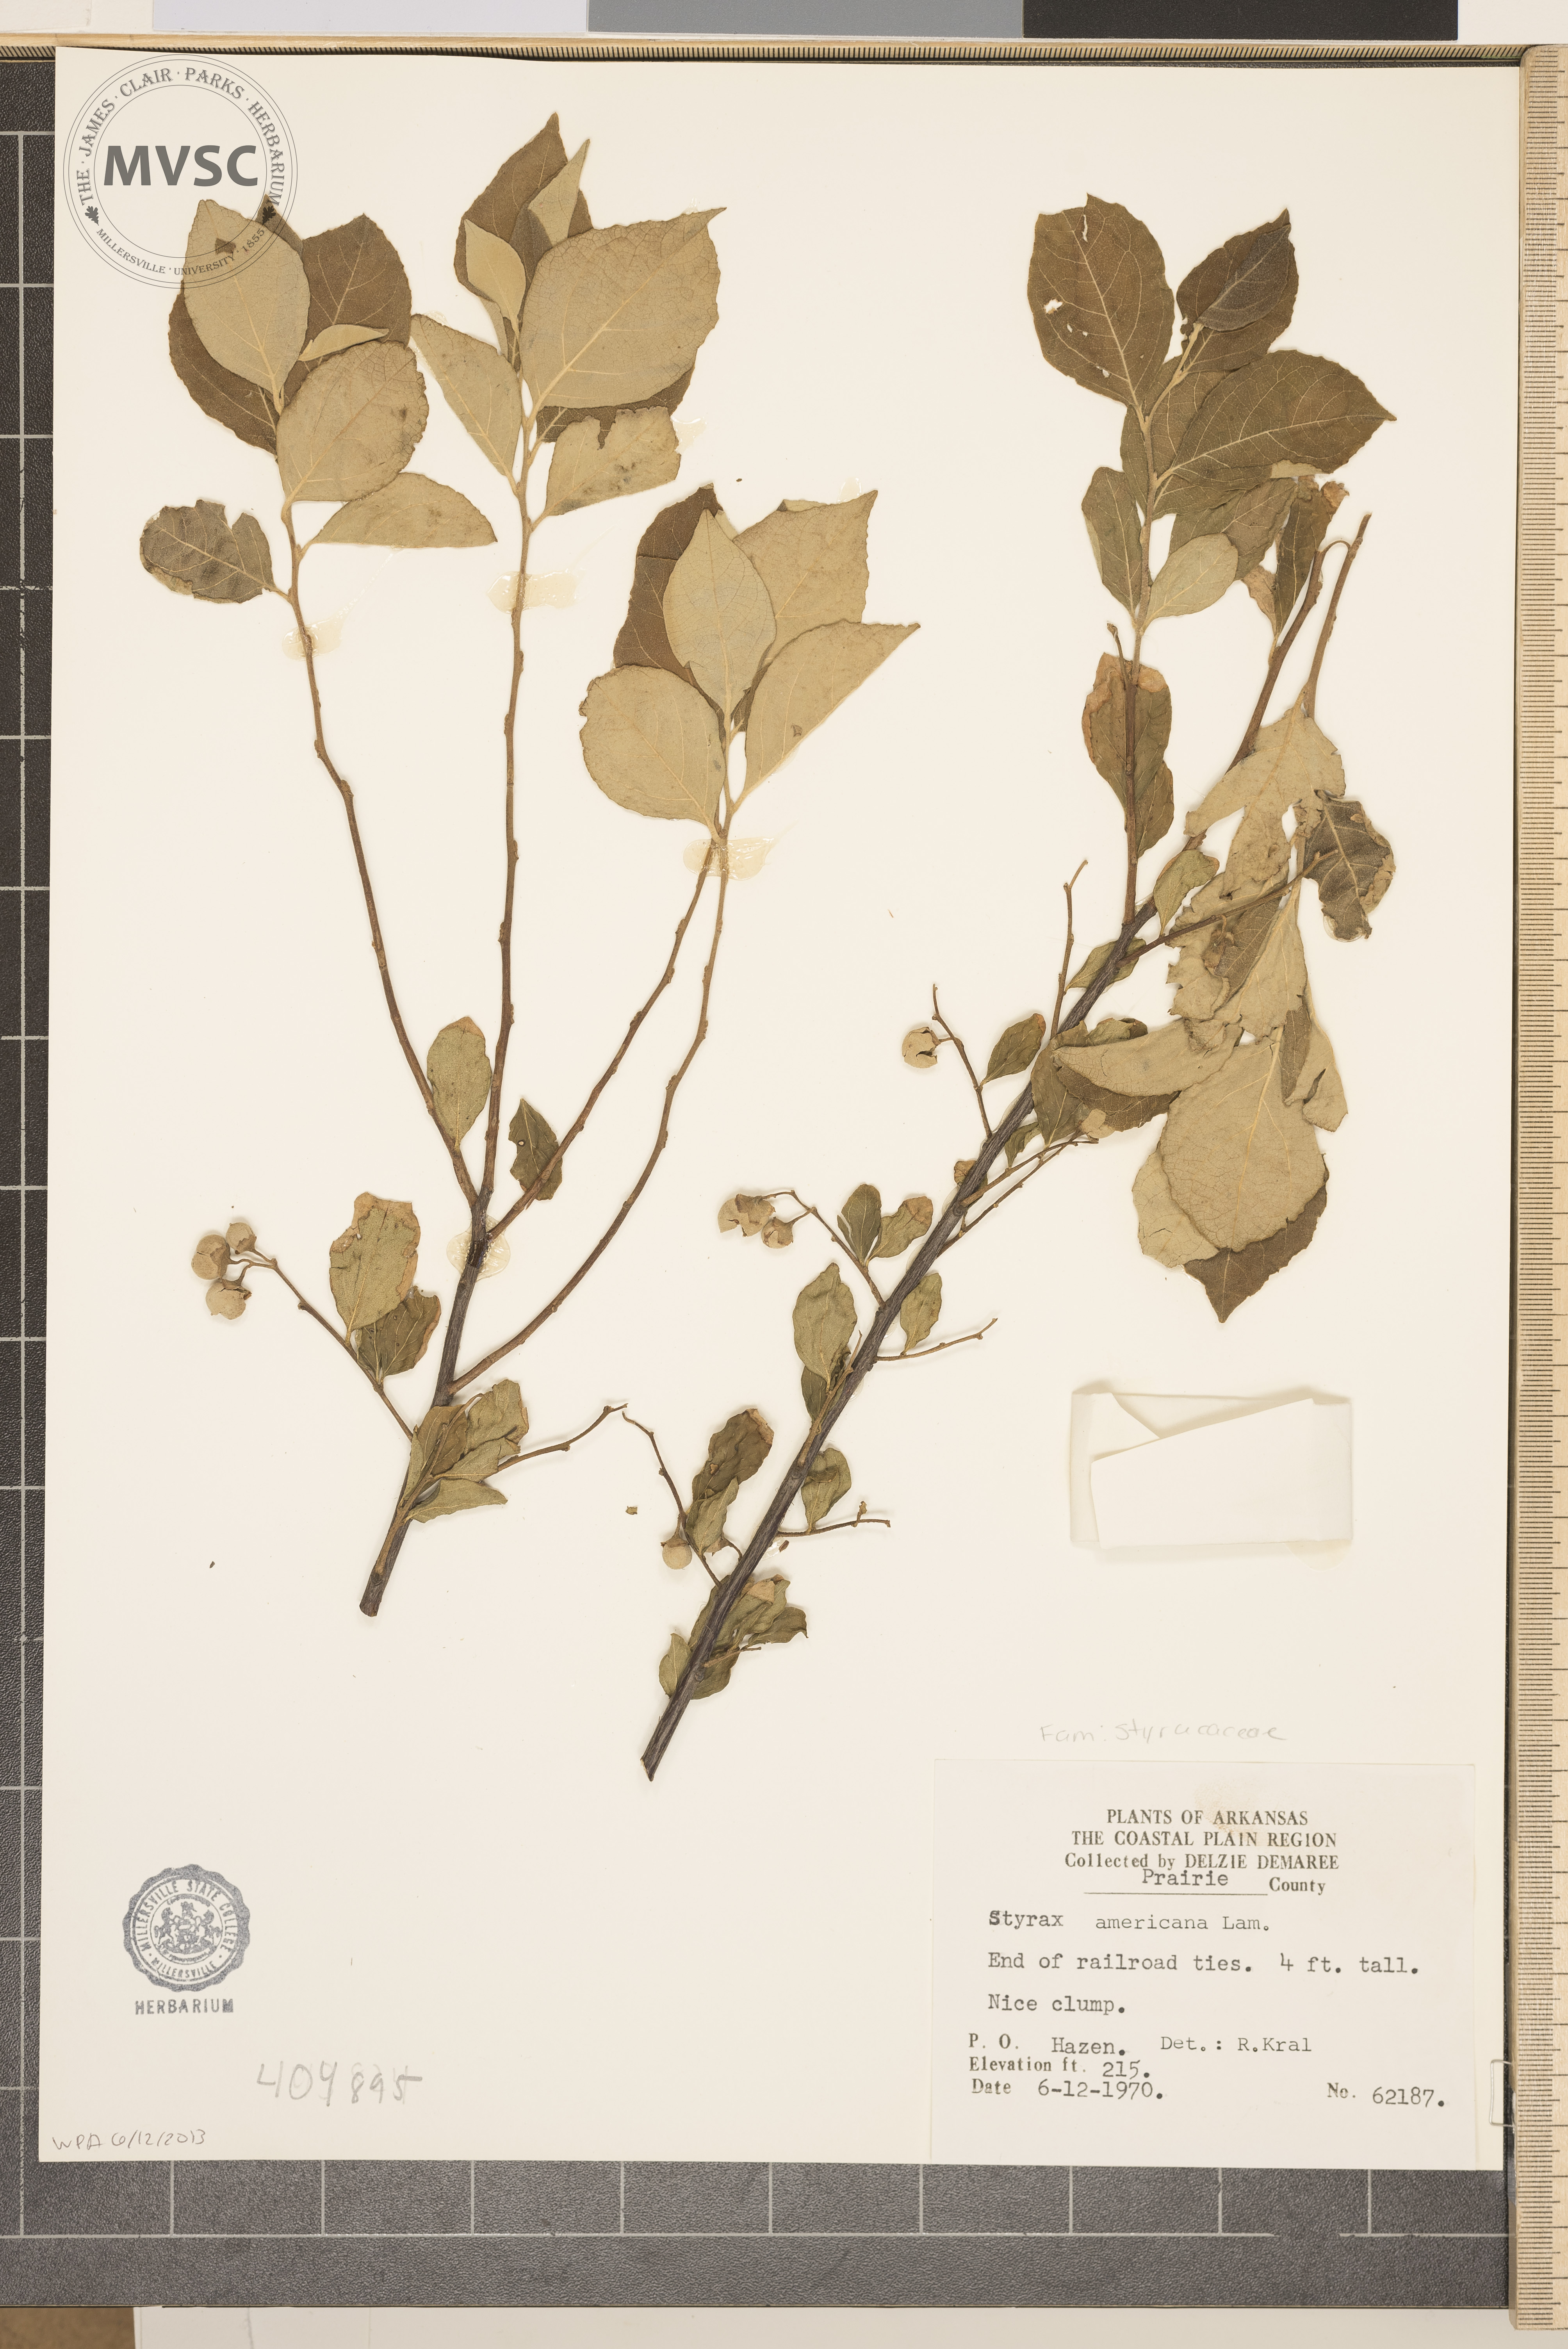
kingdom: Plantae
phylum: Tracheophyta
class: Magnoliopsida
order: Ericales
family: Styracaceae
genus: Styrax
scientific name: Styrax americanus
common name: American snowbell
